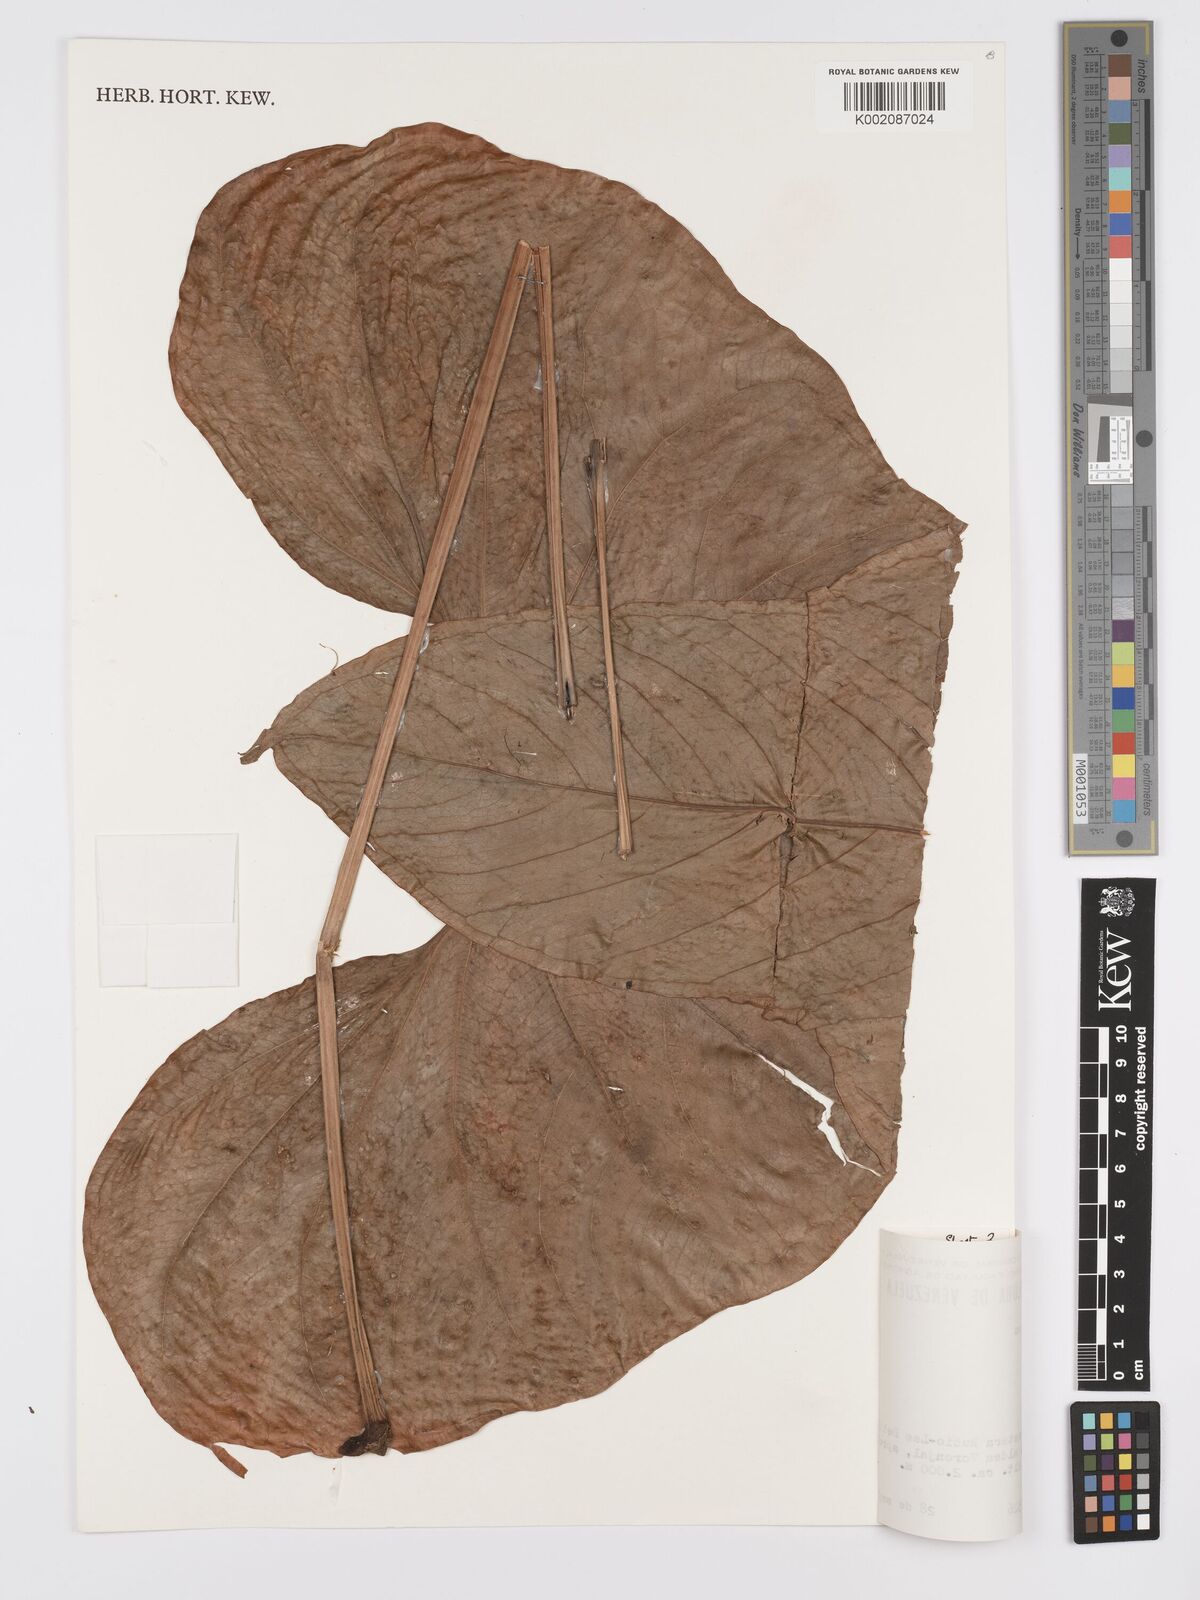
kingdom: Plantae
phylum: Tracheophyta
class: Liliopsida
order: Alismatales
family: Araceae
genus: Anthurium
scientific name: Anthurium signatum
